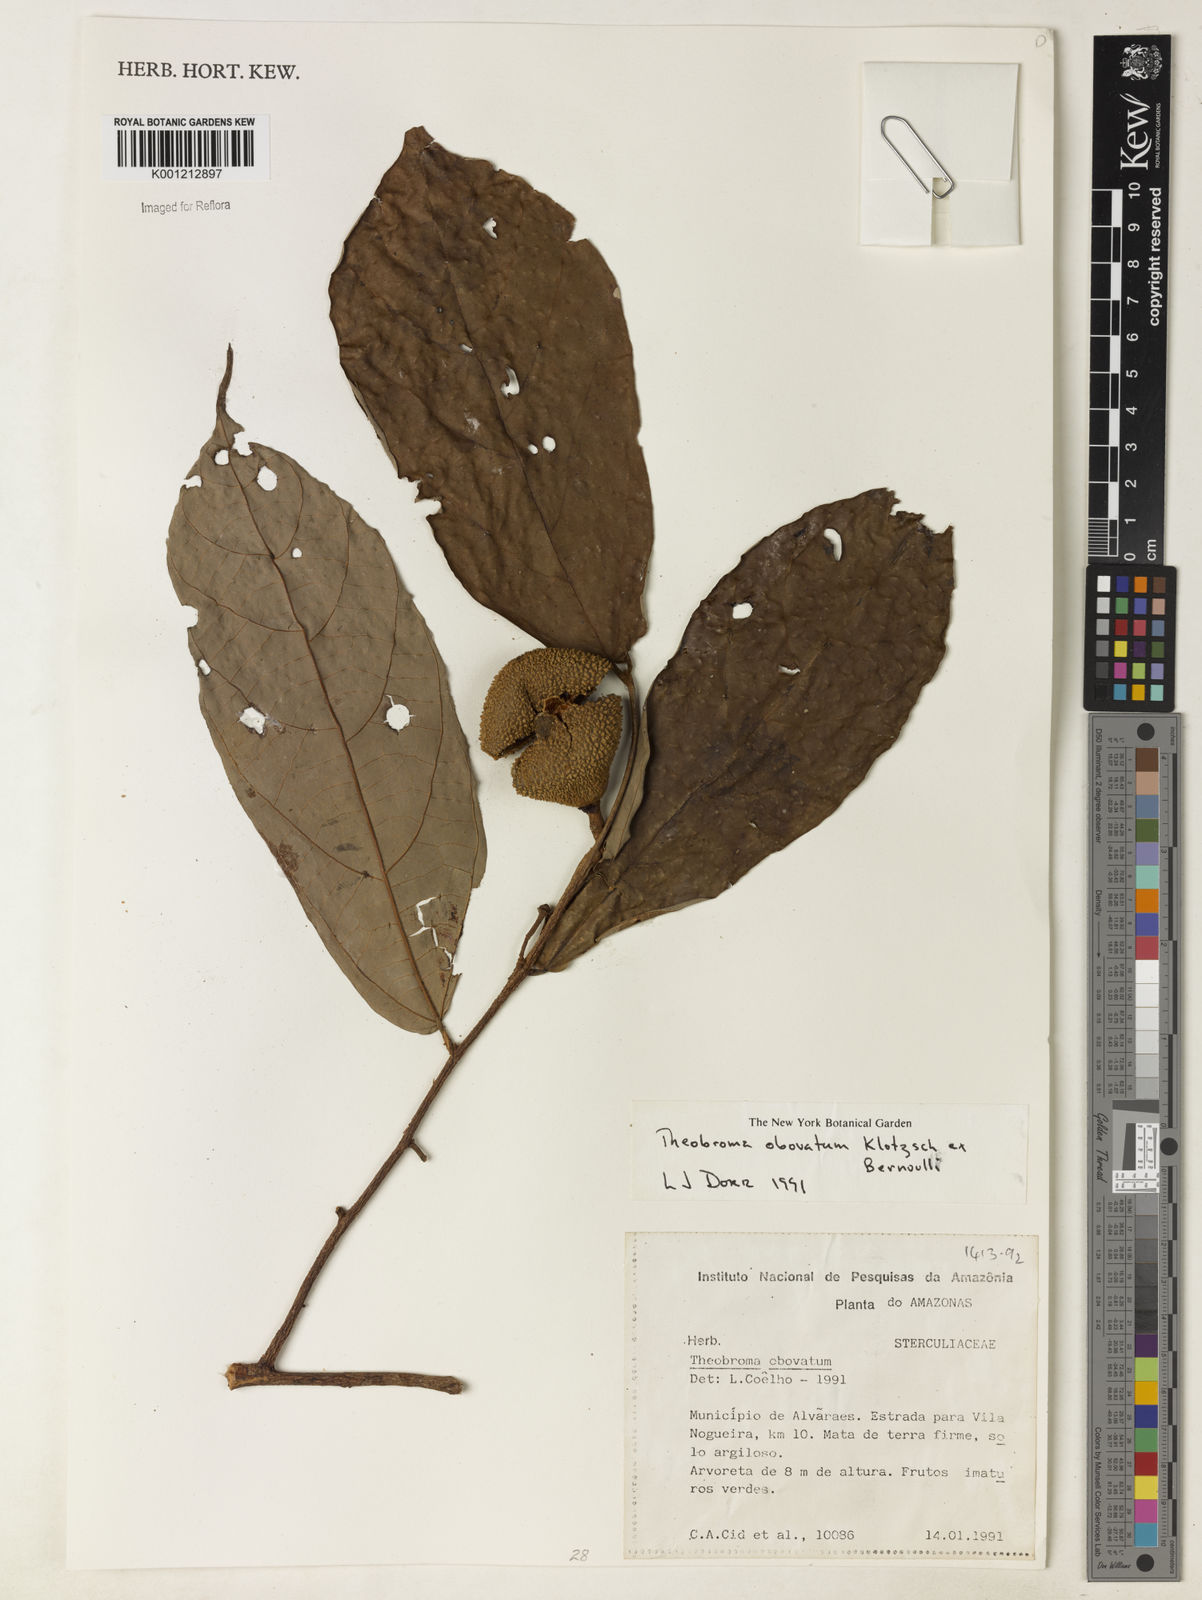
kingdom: Plantae
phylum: Tracheophyta
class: Magnoliopsida
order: Malvales
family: Malvaceae
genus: Theobroma
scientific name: Theobroma obovatum
